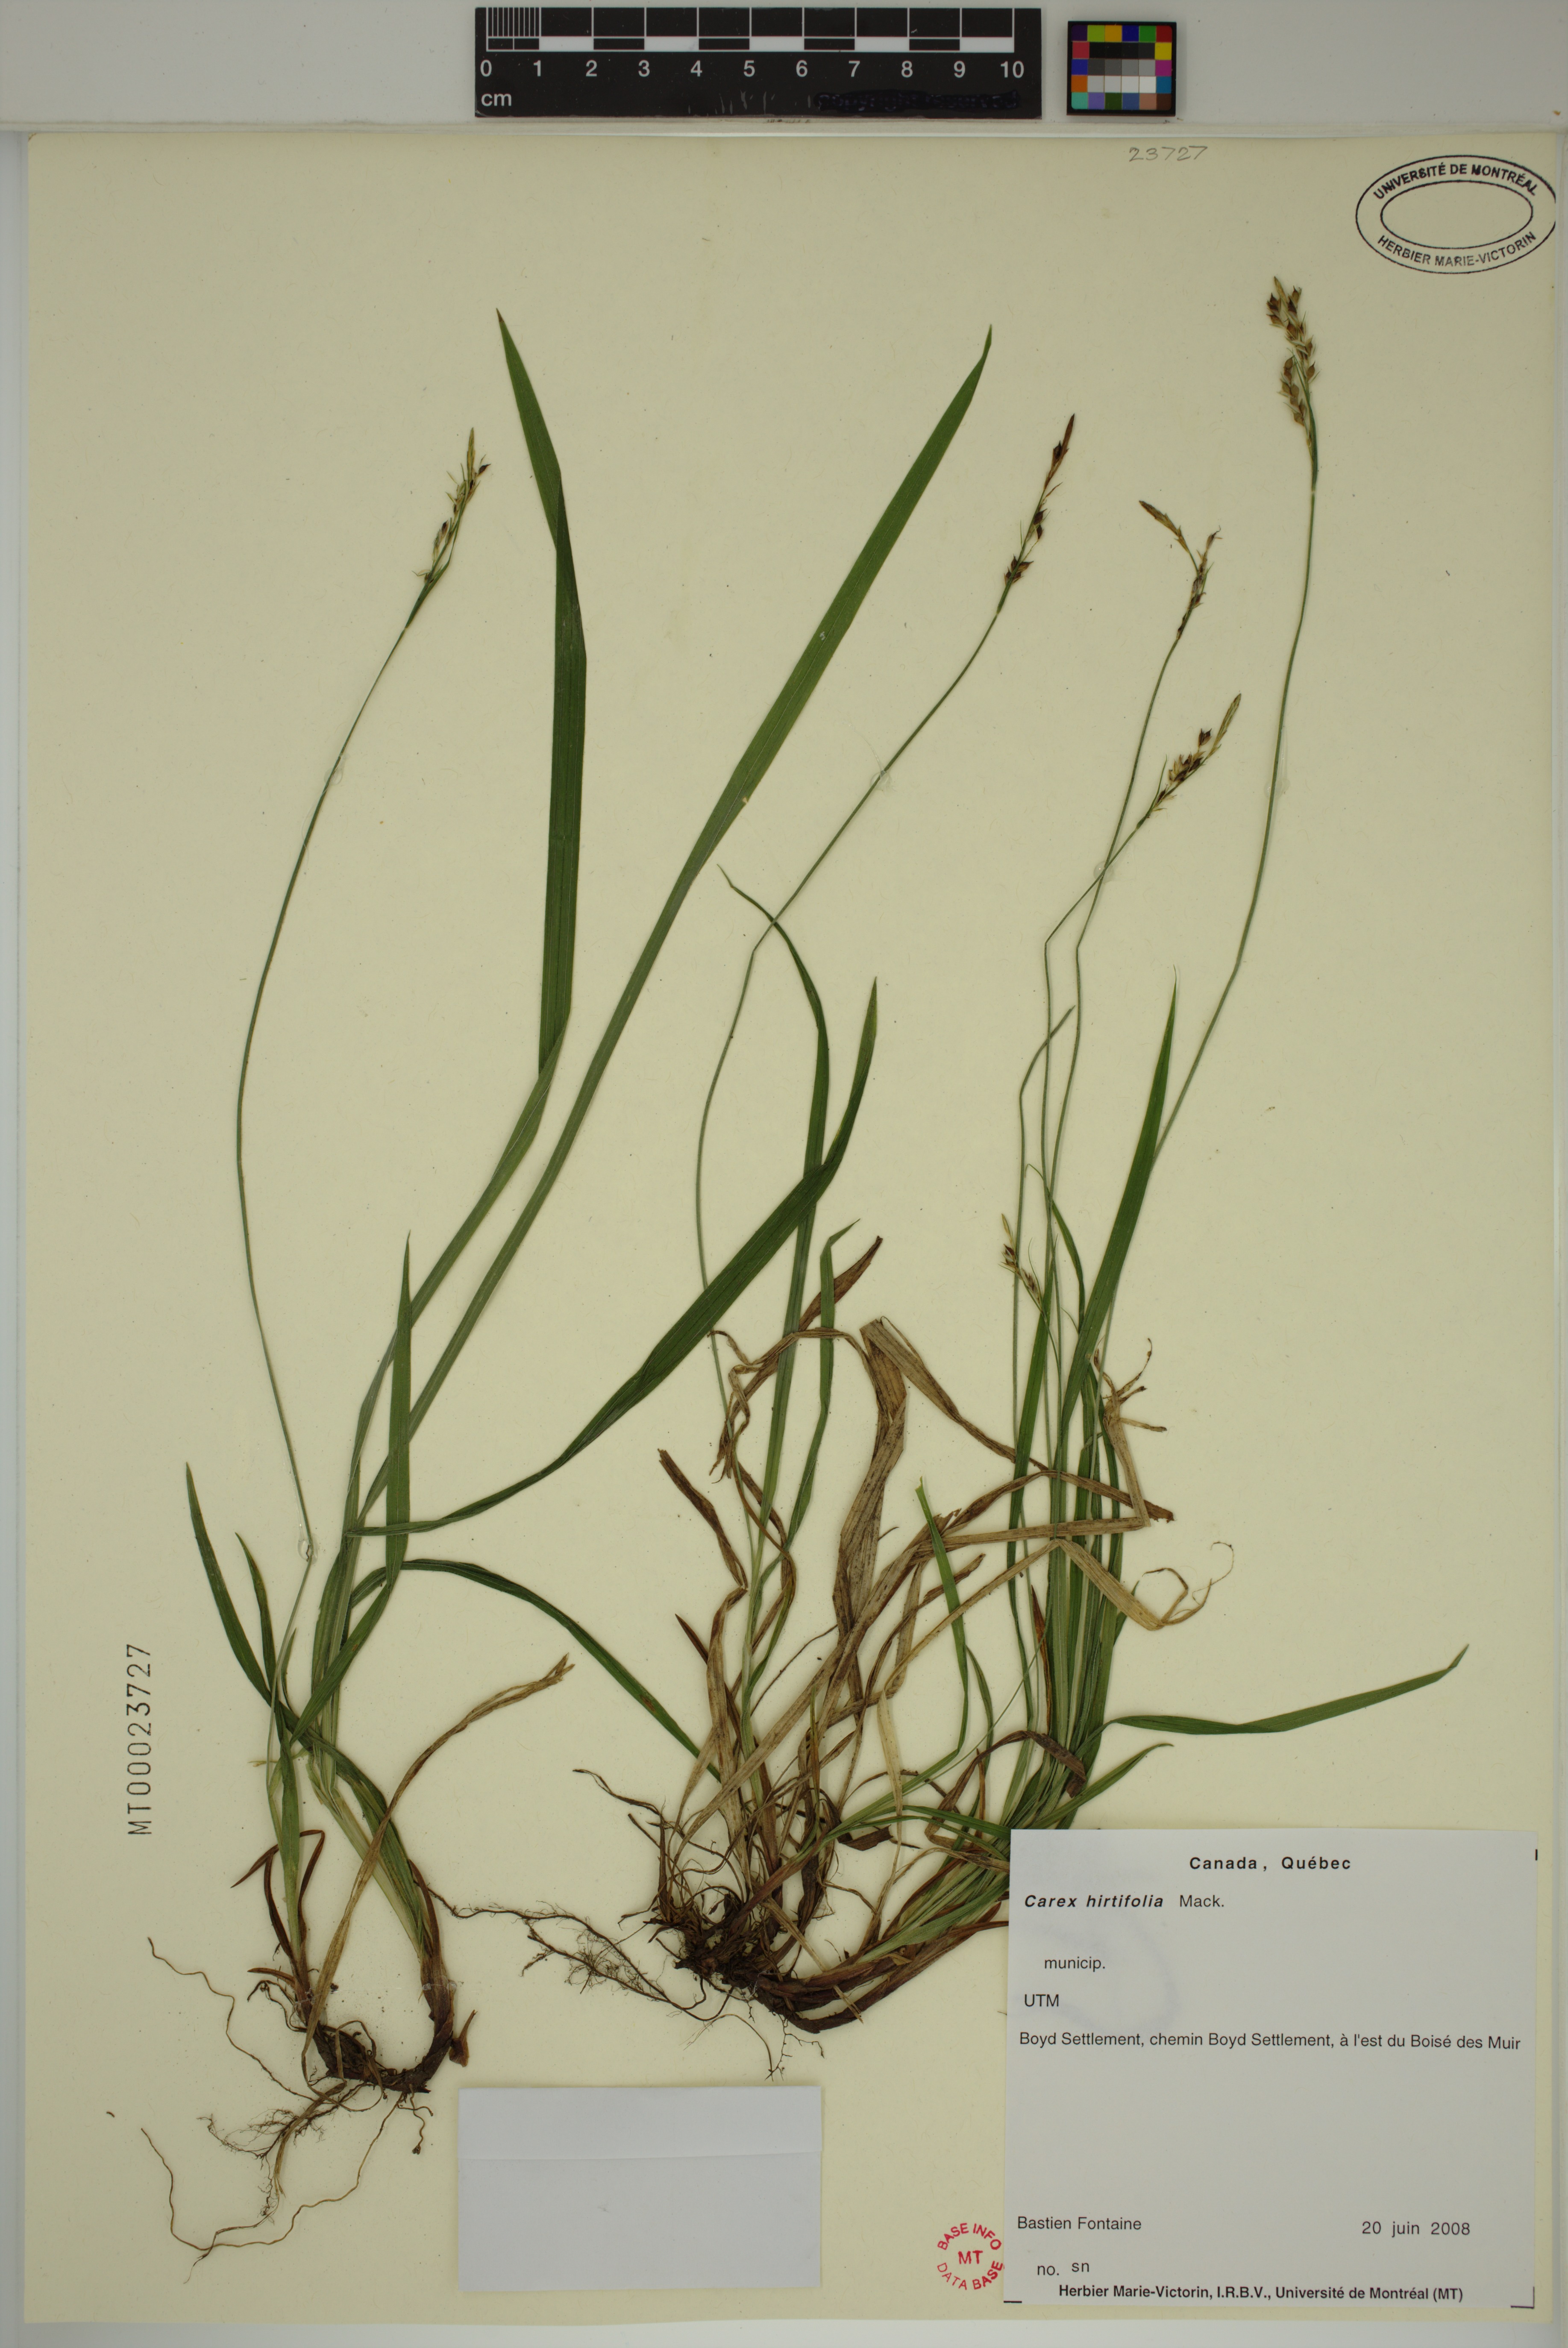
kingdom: Plantae
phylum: Tracheophyta
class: Liliopsida
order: Poales
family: Cyperaceae
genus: Carex
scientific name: Carex hirtifolia
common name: Hairy sedge
